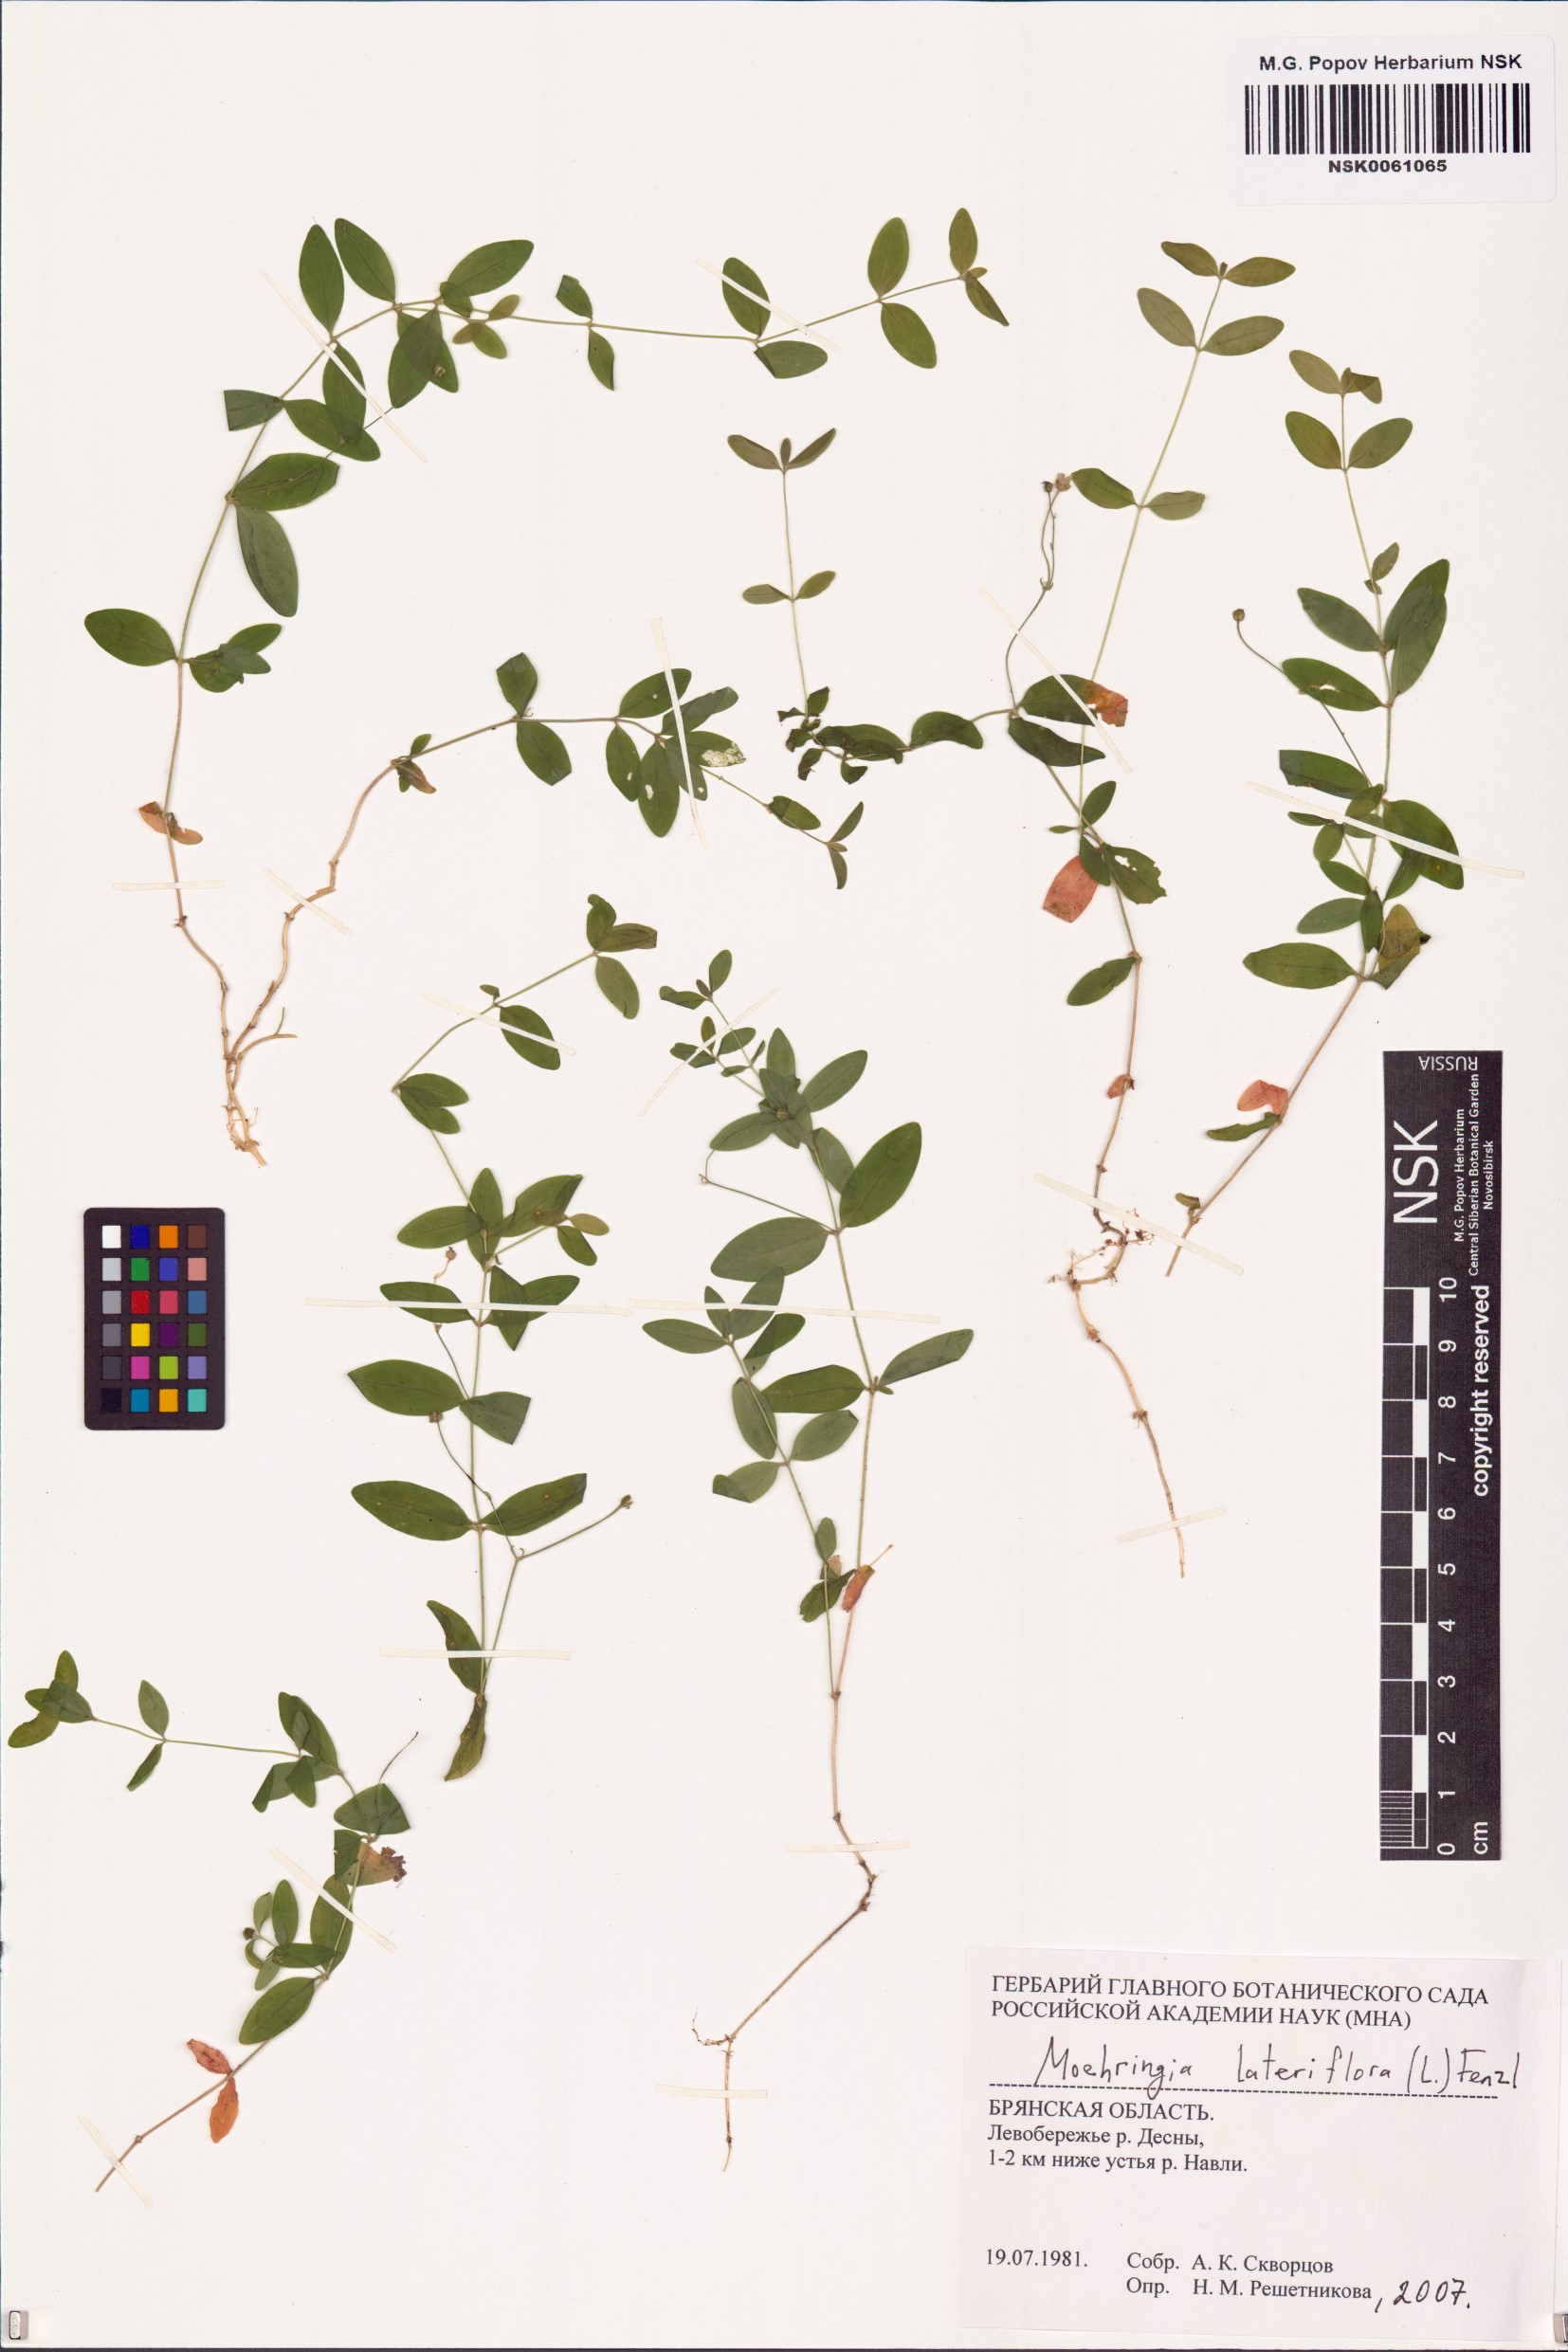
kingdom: Plantae
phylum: Tracheophyta
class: Magnoliopsida
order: Caryophyllales
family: Caryophyllaceae
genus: Moehringia
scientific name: Moehringia lateriflora
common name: Blunt-leaved sandwort
